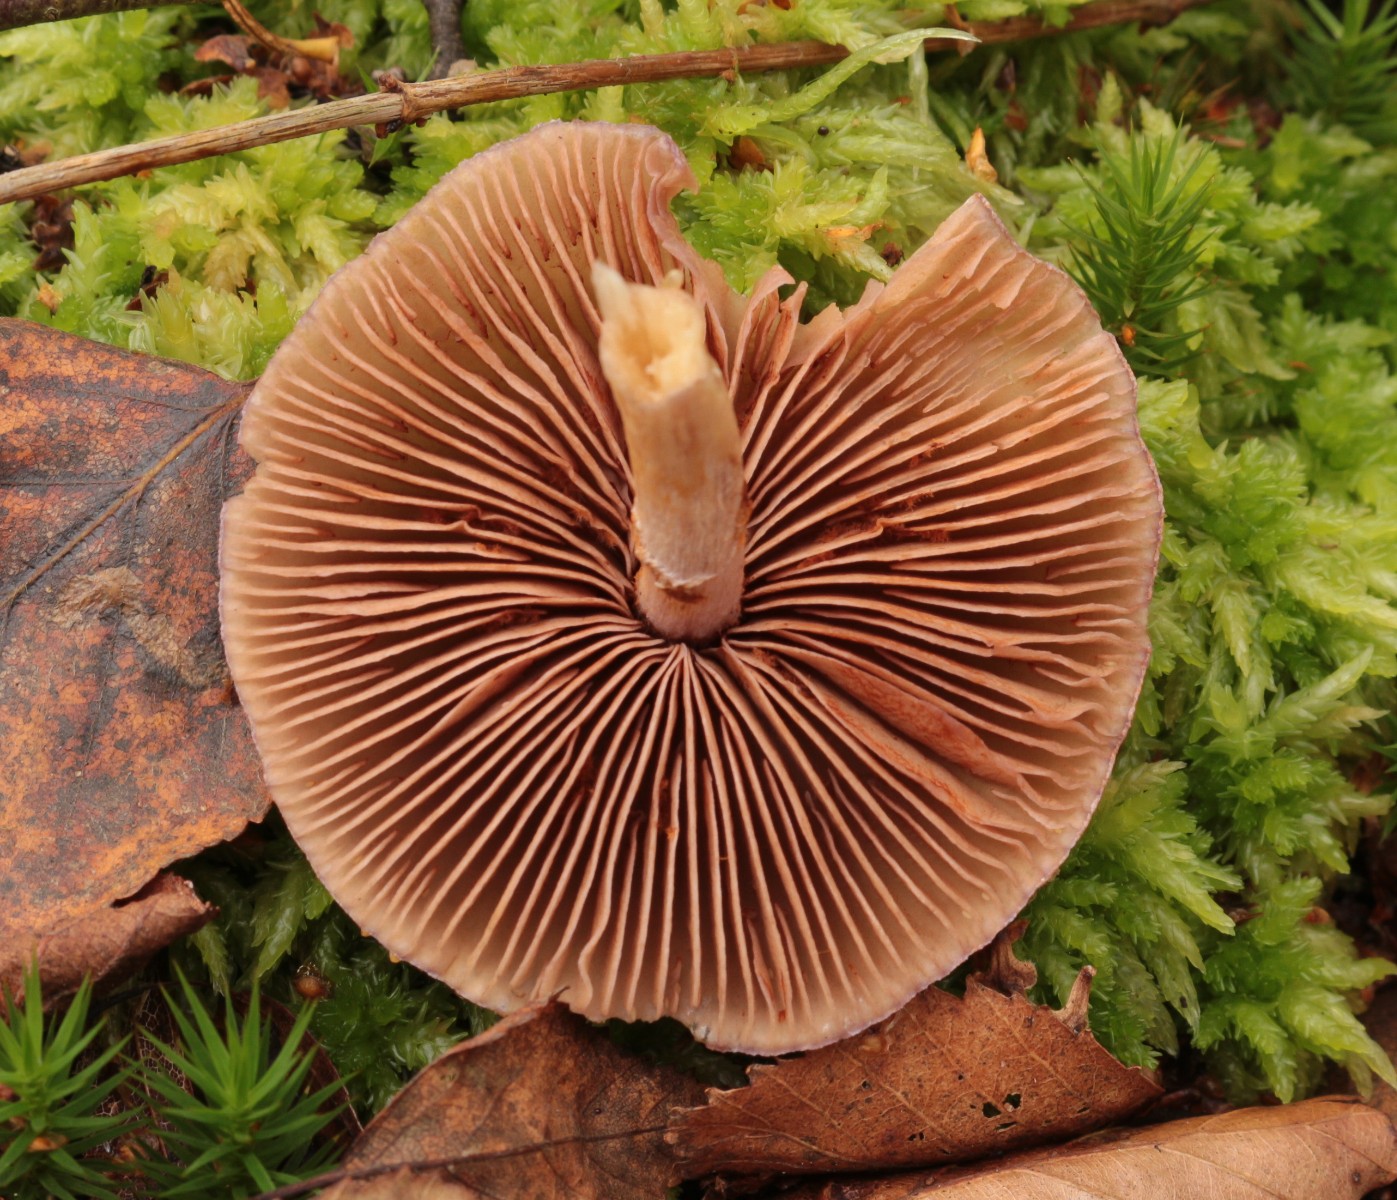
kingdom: Fungi
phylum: Basidiomycota
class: Agaricomycetes
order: Agaricales
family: Cortinariaceae
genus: Cortinarius
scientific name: Cortinarius
